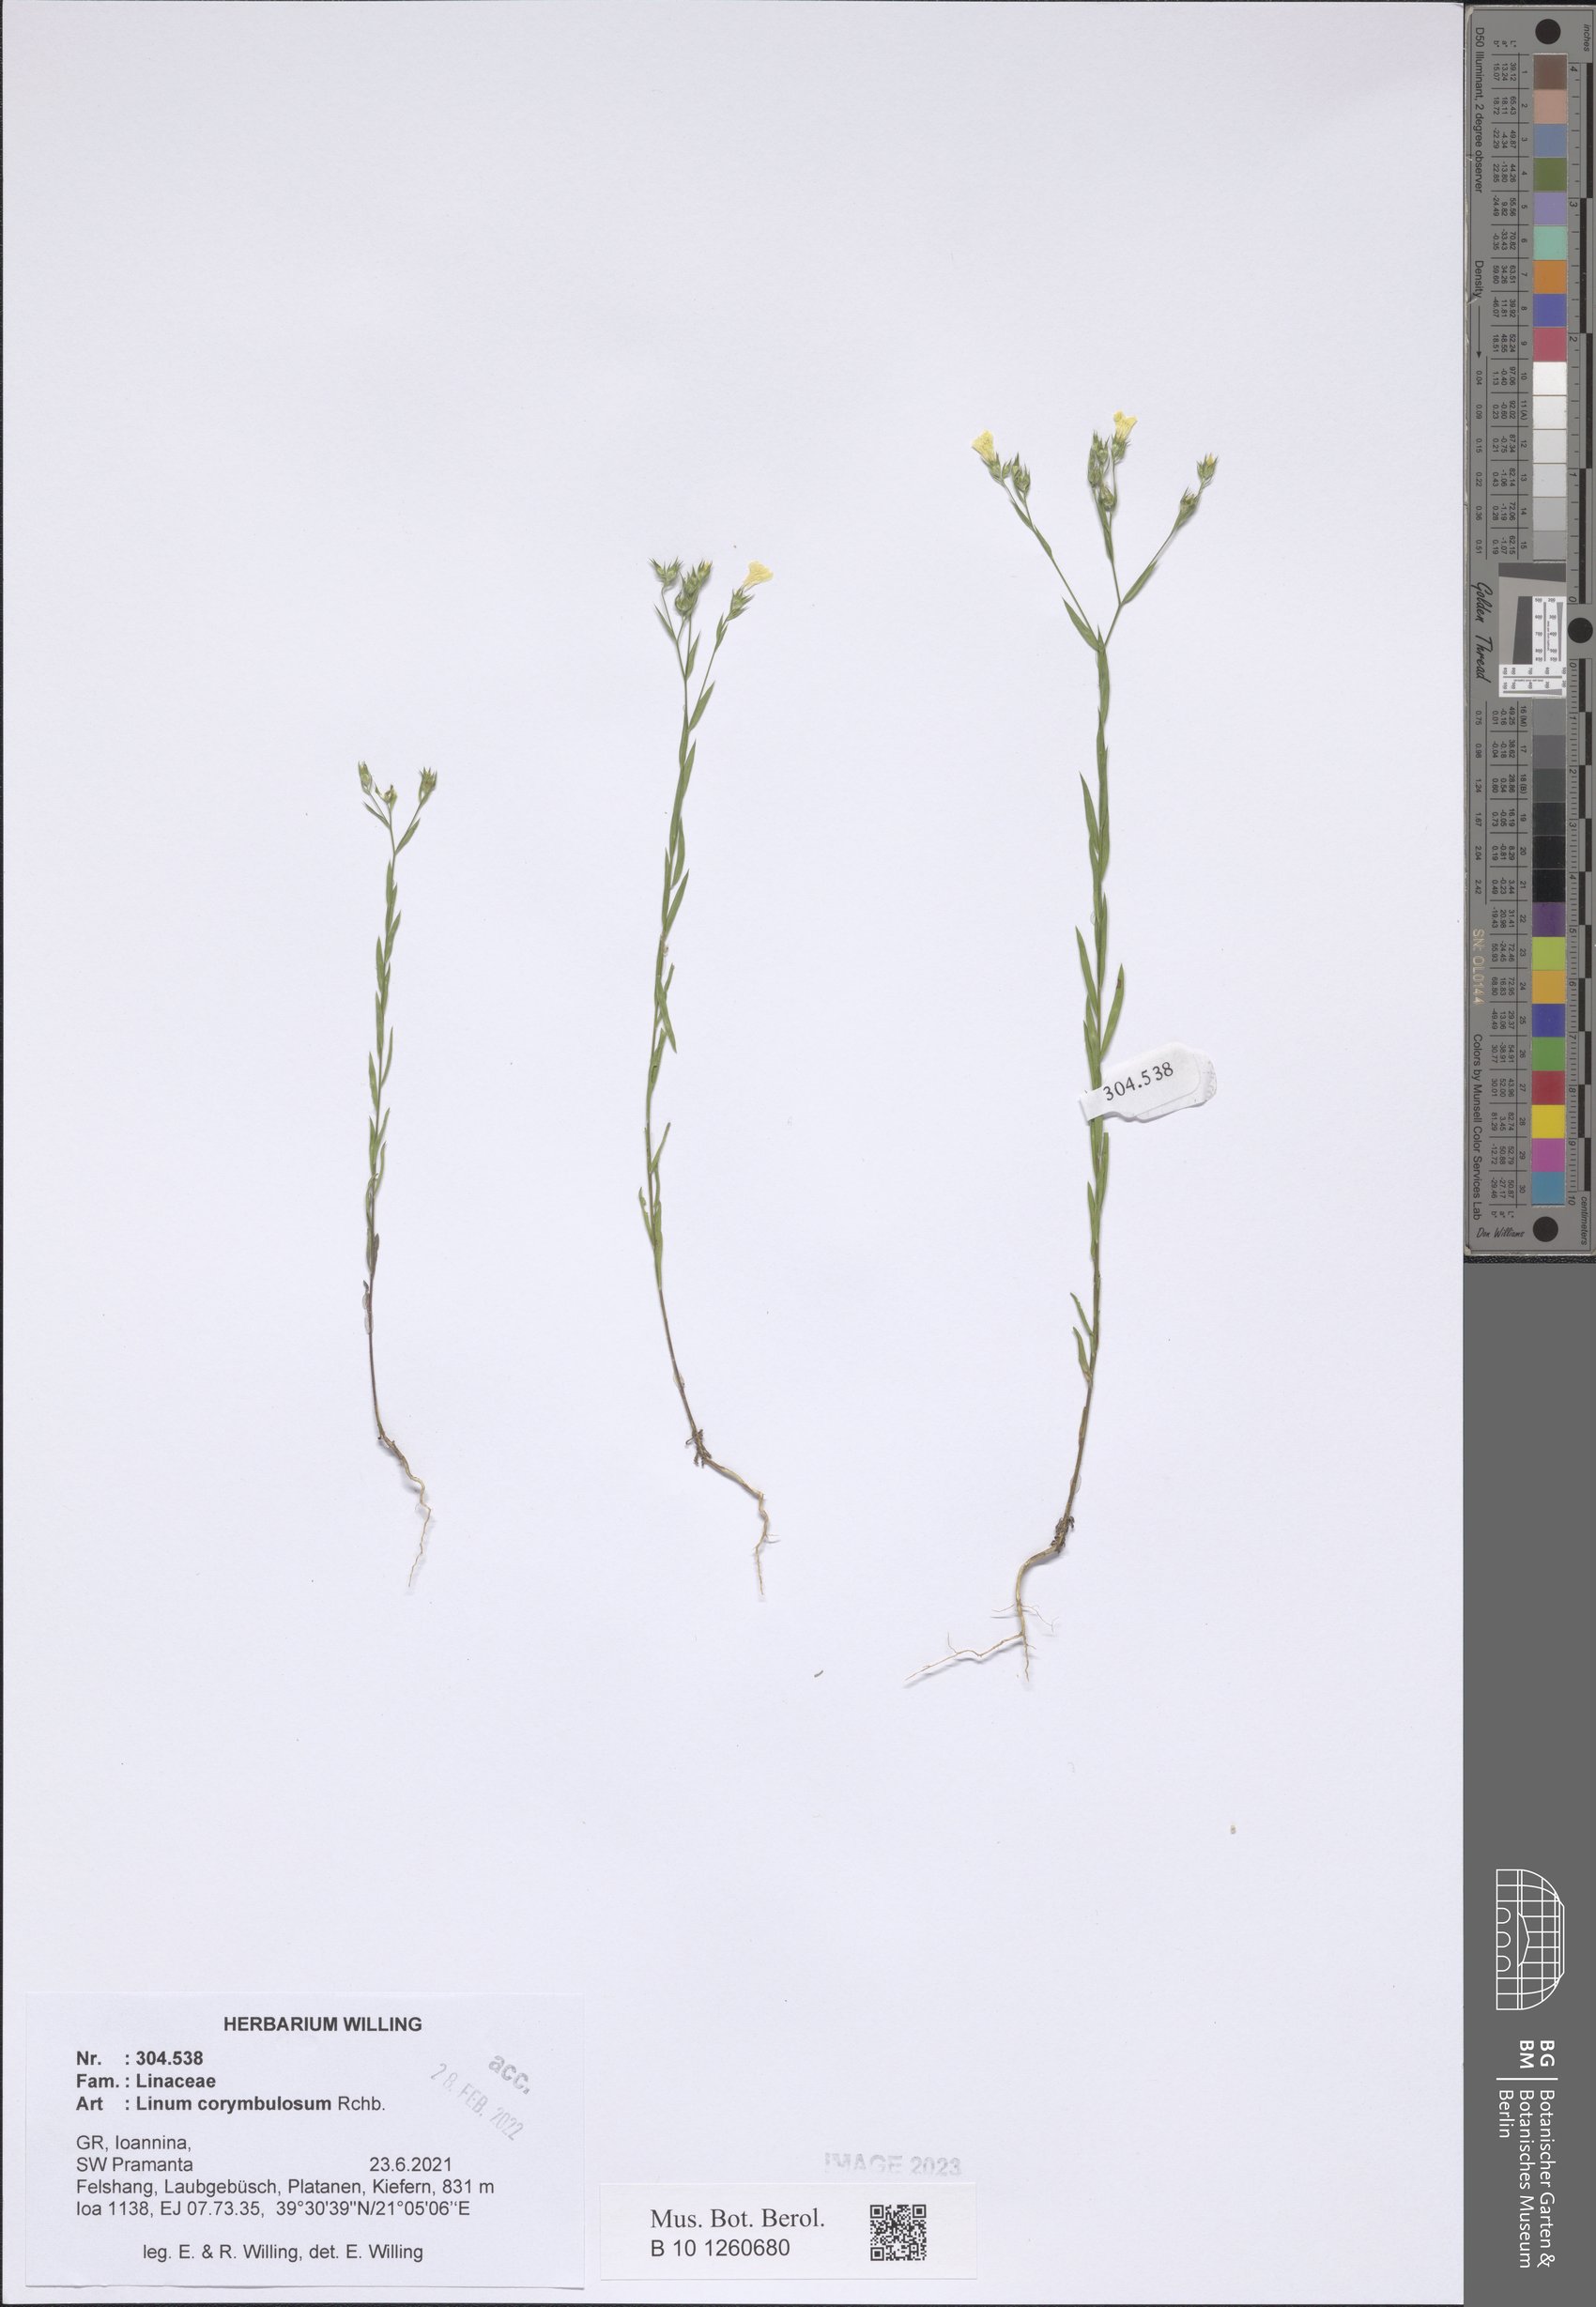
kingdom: Plantae
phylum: Tracheophyta
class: Magnoliopsida
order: Malpighiales
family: Linaceae
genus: Linum
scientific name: Linum corymbulosum
